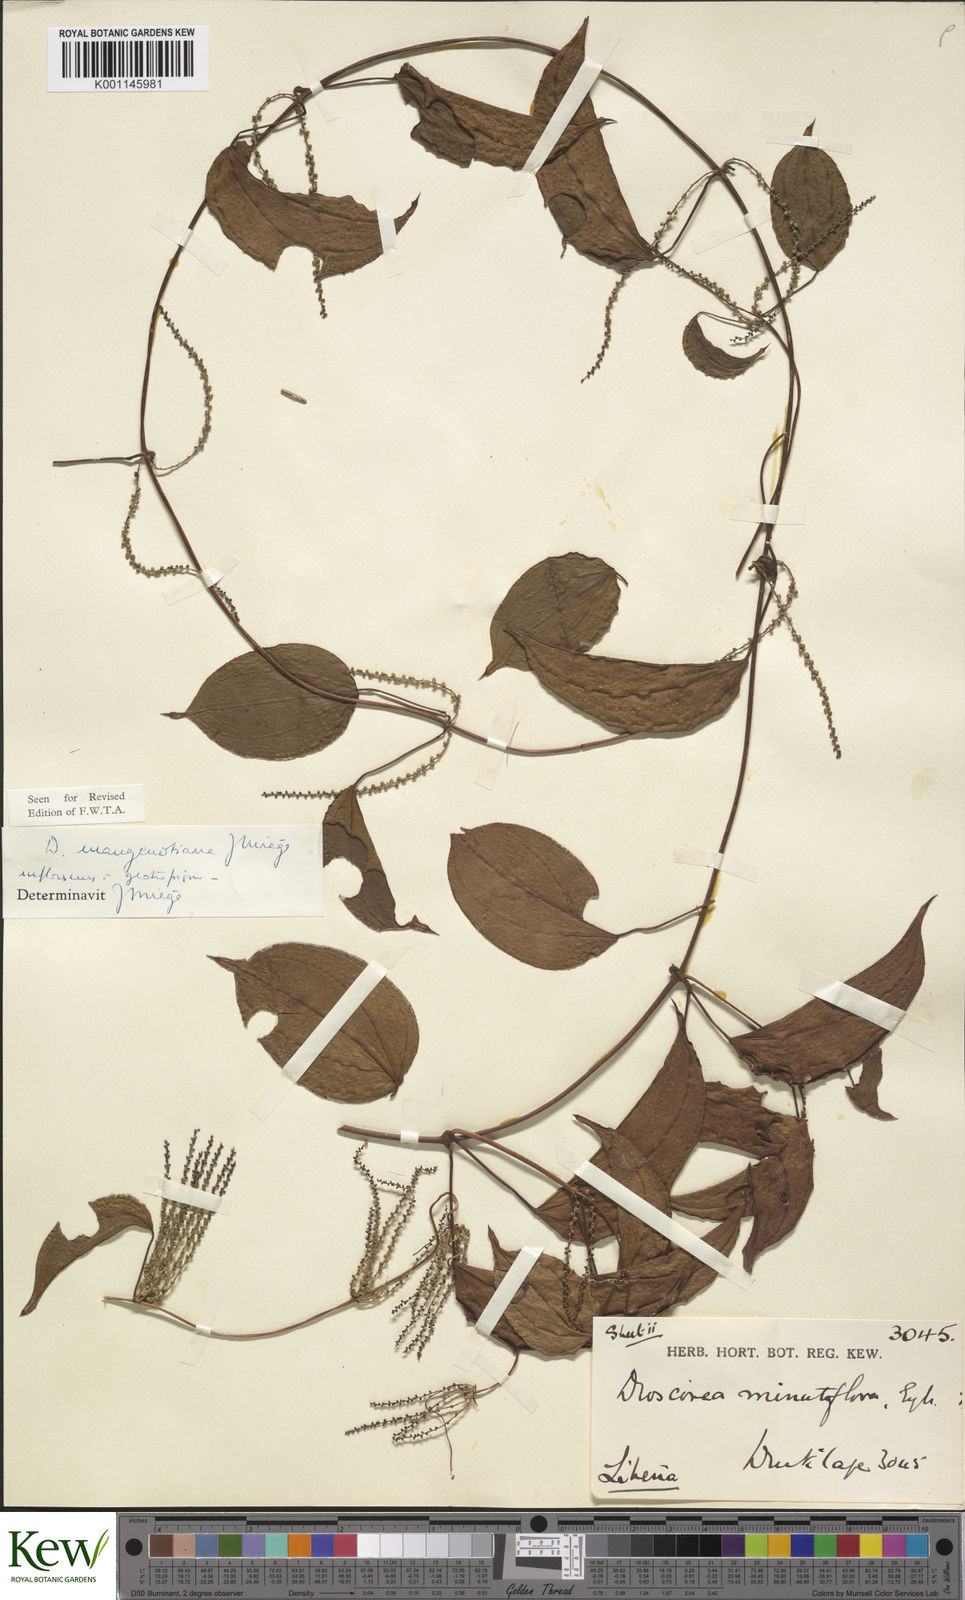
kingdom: Plantae
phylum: Tracheophyta
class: Liliopsida
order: Dioscoreales
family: Dioscoreaceae
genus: Dioscorea
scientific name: Dioscorea
